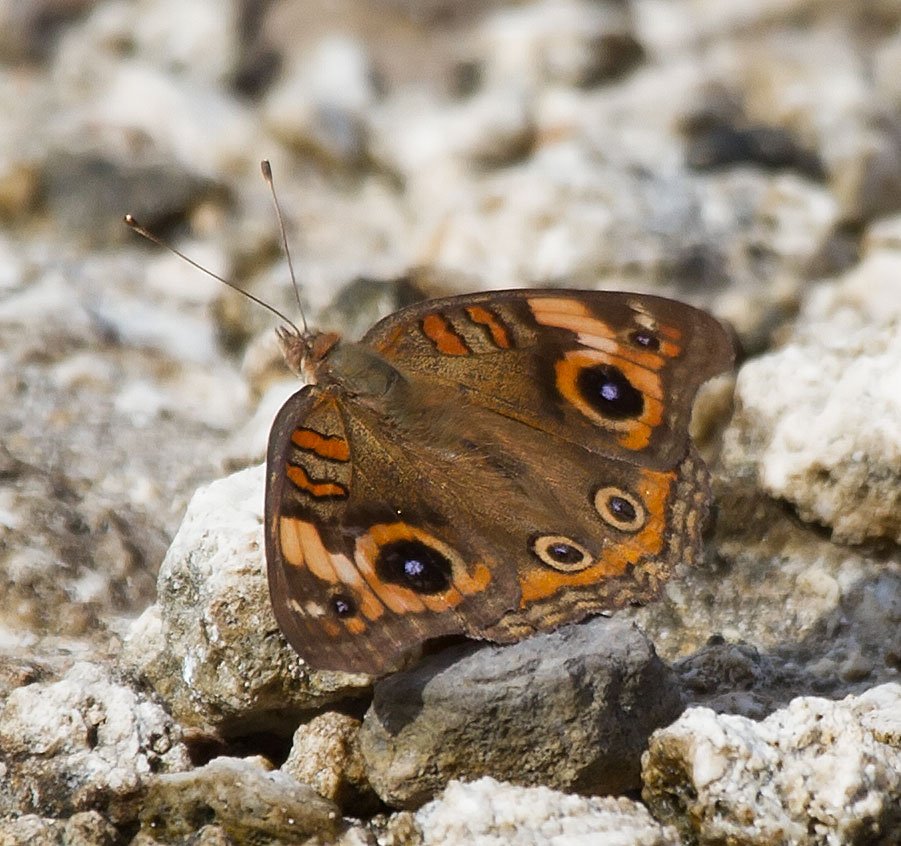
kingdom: Animalia
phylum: Arthropoda
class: Insecta
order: Lepidoptera
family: Nymphalidae
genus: Junonia
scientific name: Junonia evarete
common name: Mangrove Buckeye
